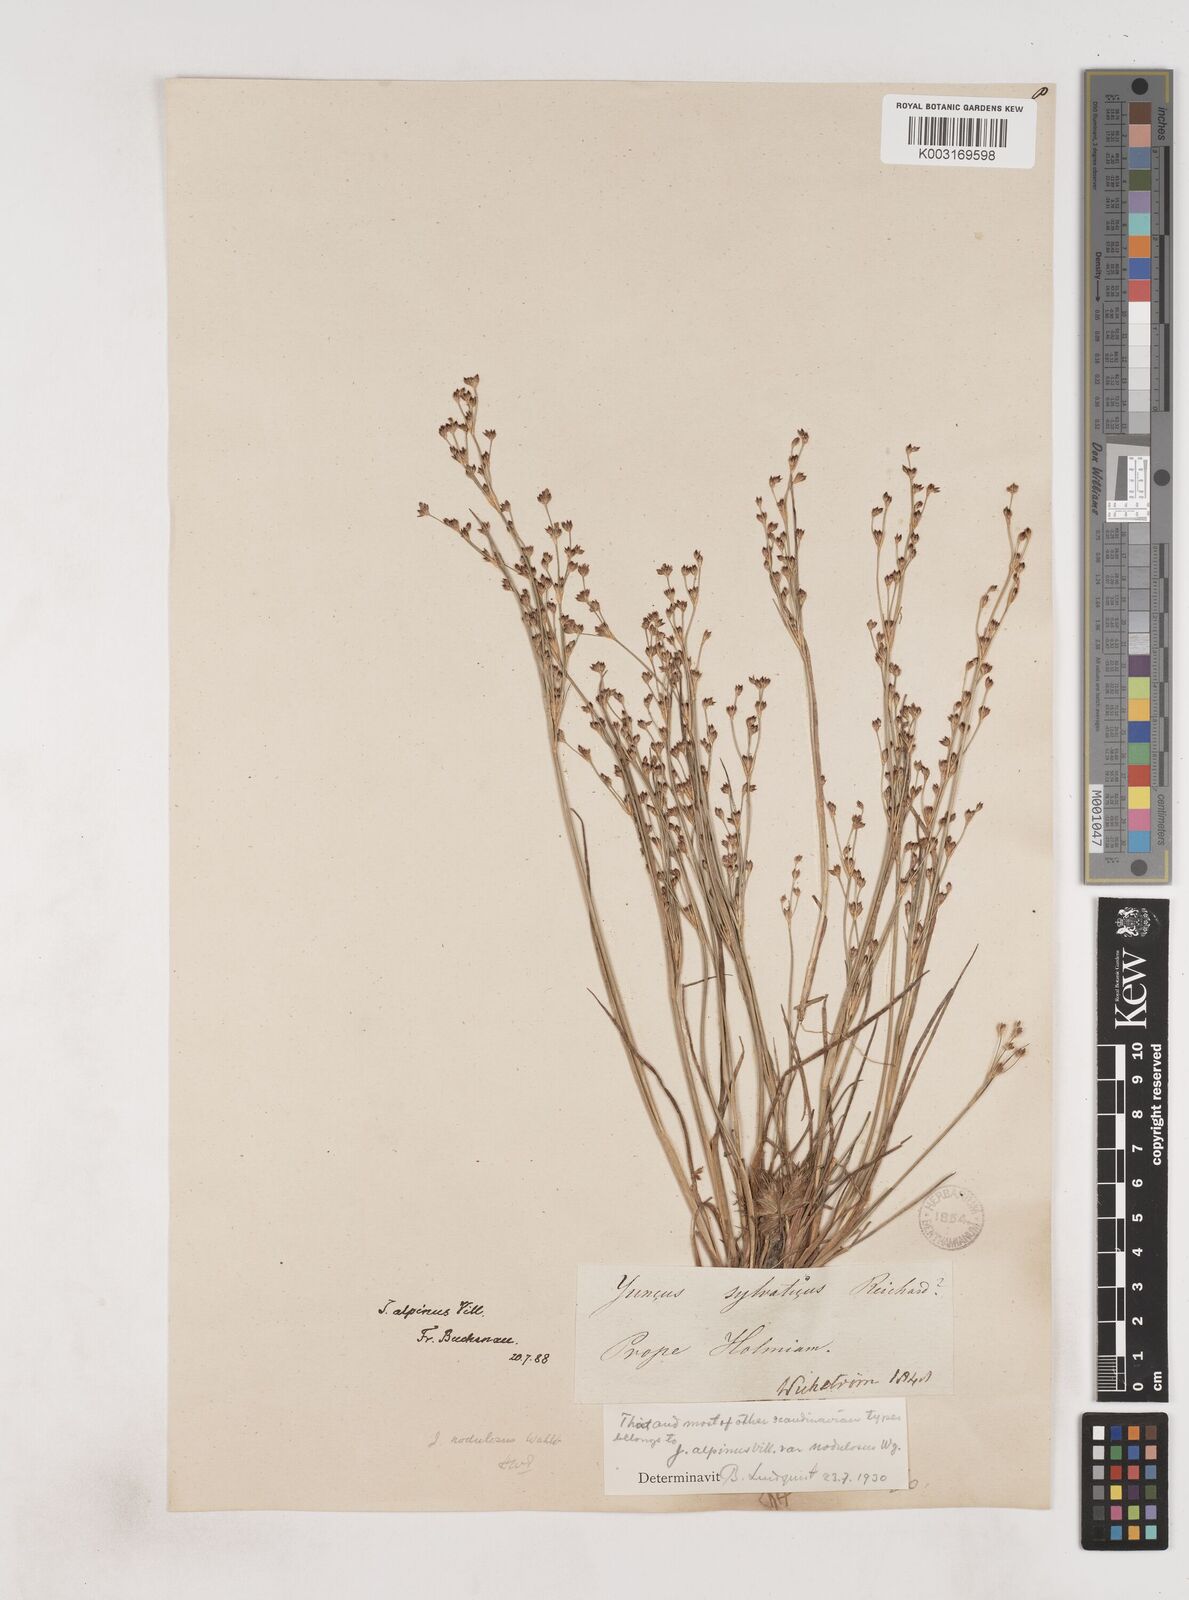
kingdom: Plantae
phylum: Tracheophyta
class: Liliopsida
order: Poales
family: Juncaceae
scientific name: Juncaceae
